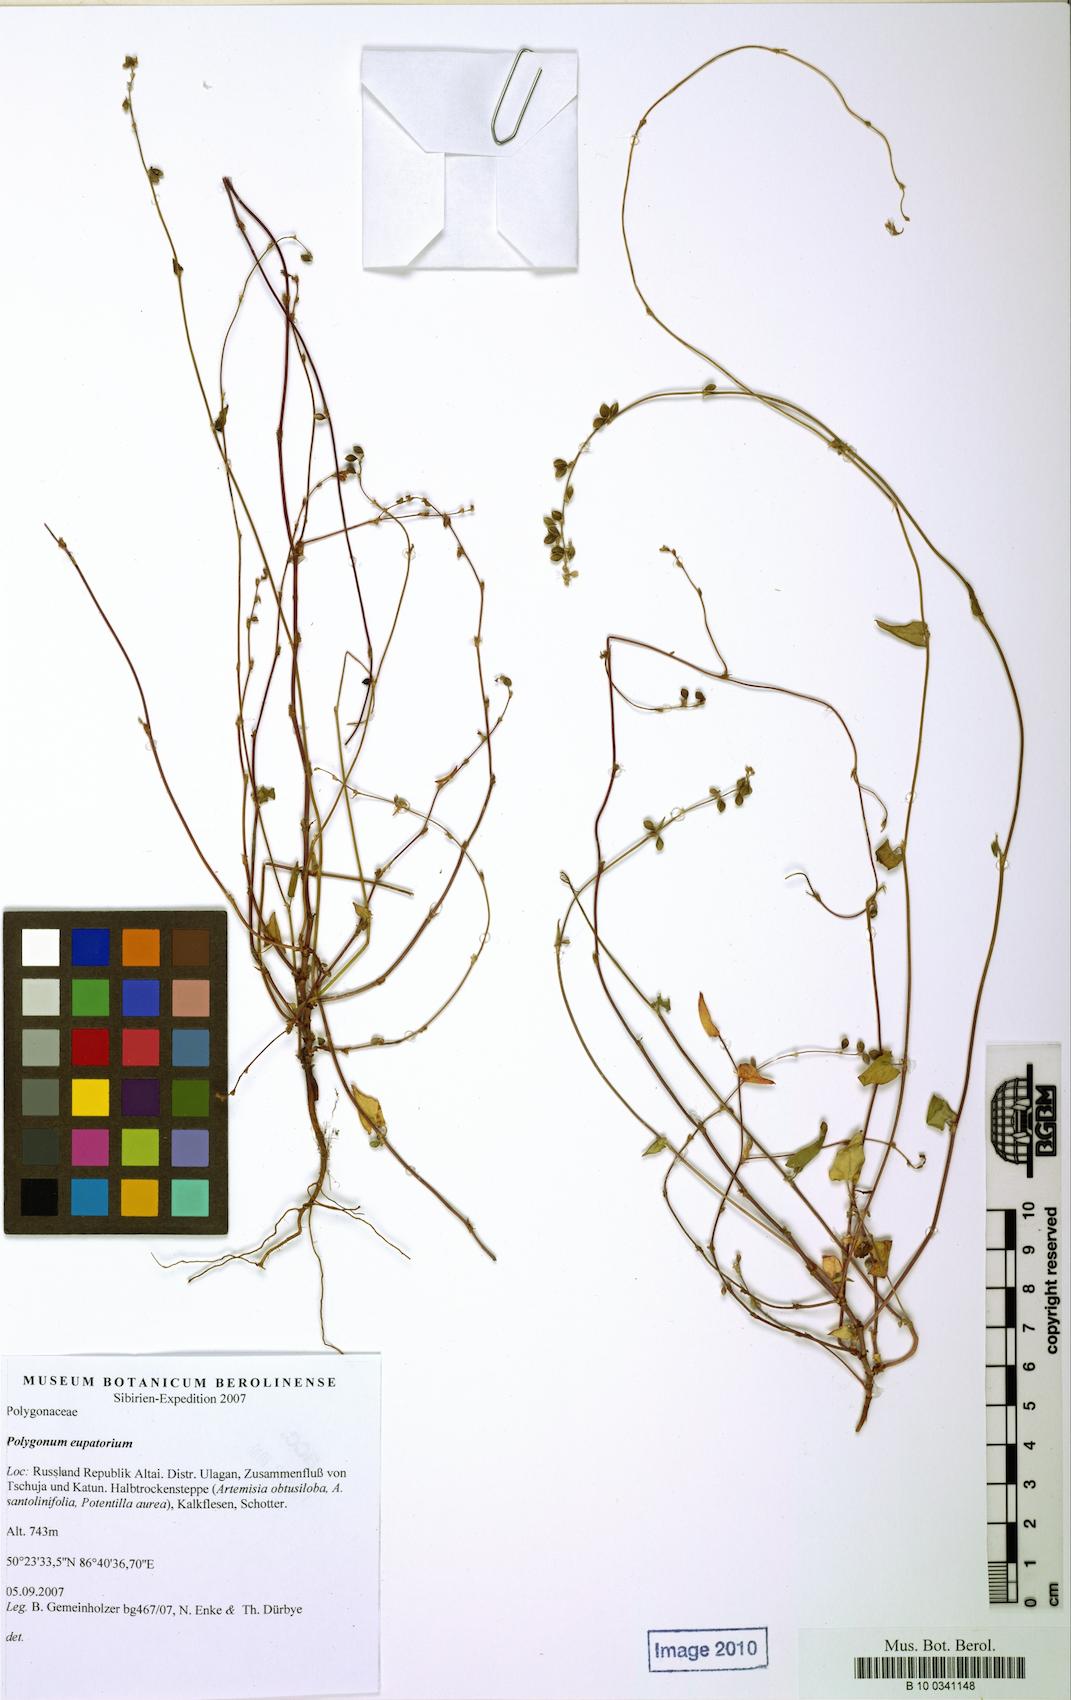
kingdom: Plantae
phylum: Tracheophyta
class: Magnoliopsida
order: Caryophyllales
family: Polygonaceae
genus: Polygonum
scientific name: Polygonum
